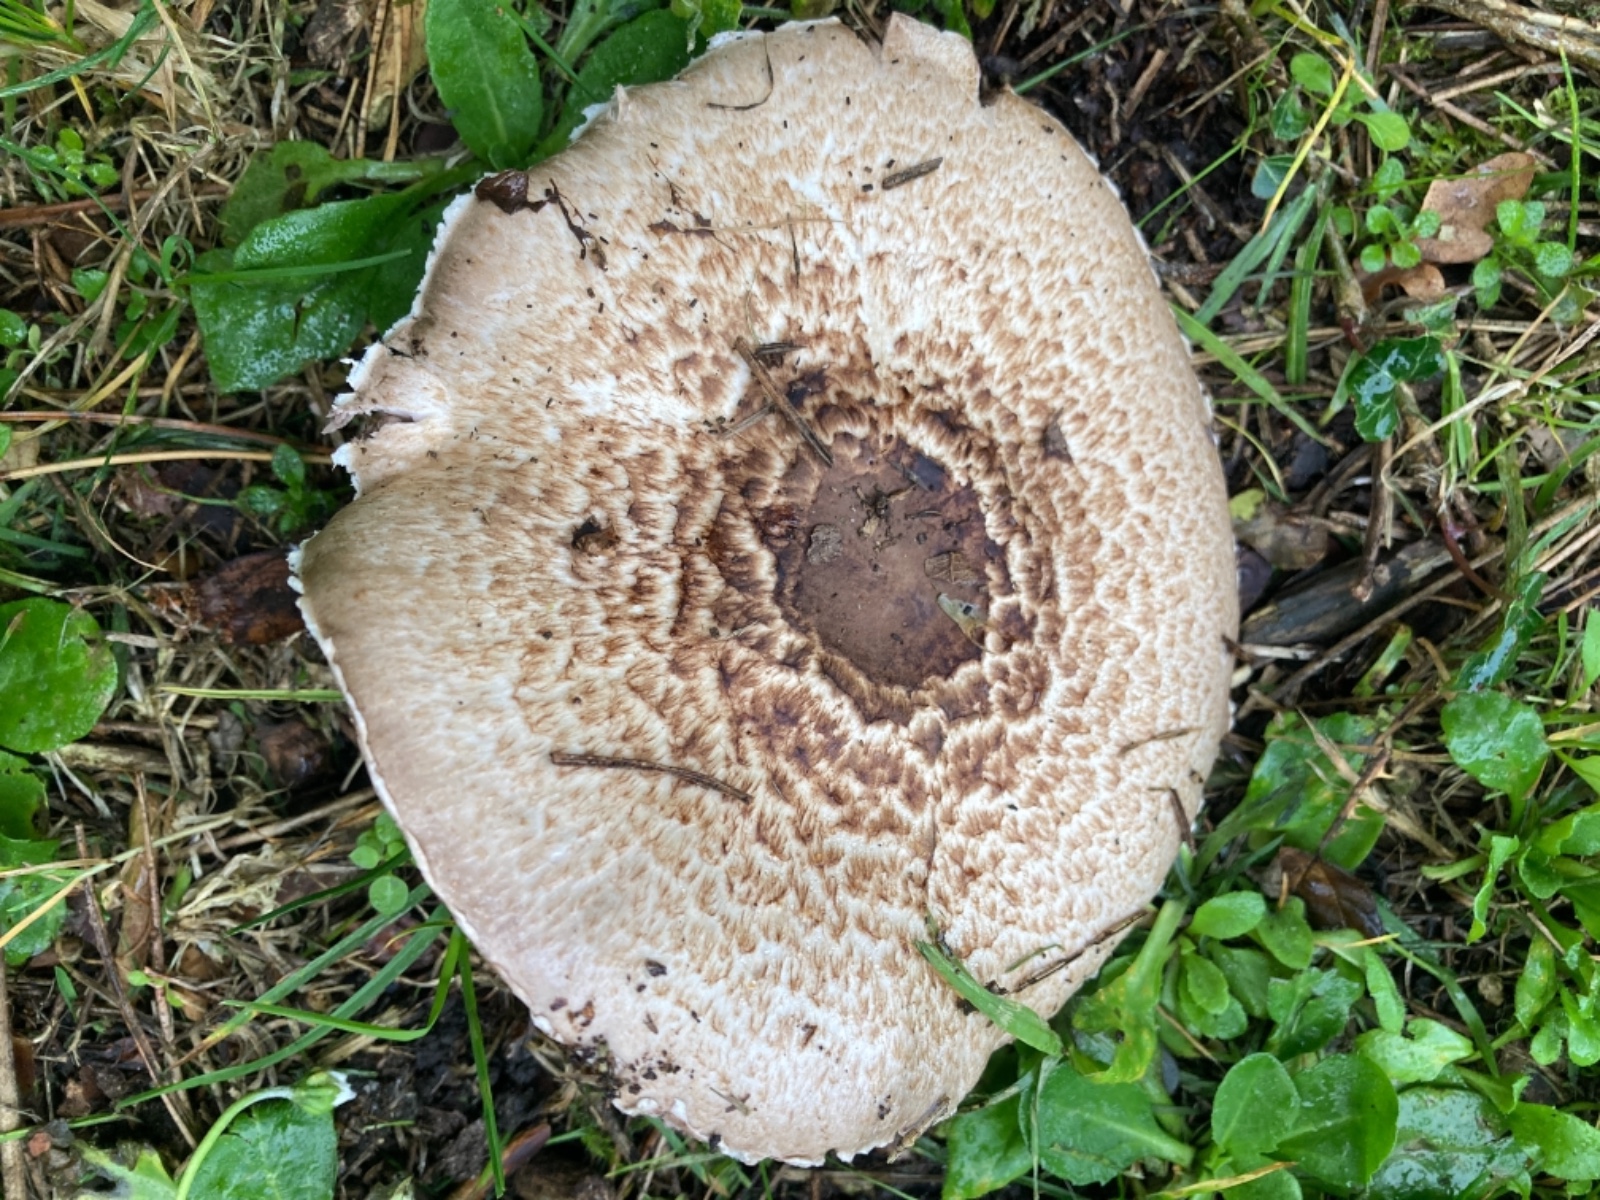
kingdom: Fungi
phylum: Basidiomycota
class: Agaricomycetes
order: Agaricales
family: Agaricaceae
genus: Agaricus
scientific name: Agaricus langei
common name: stor blod-champignon
